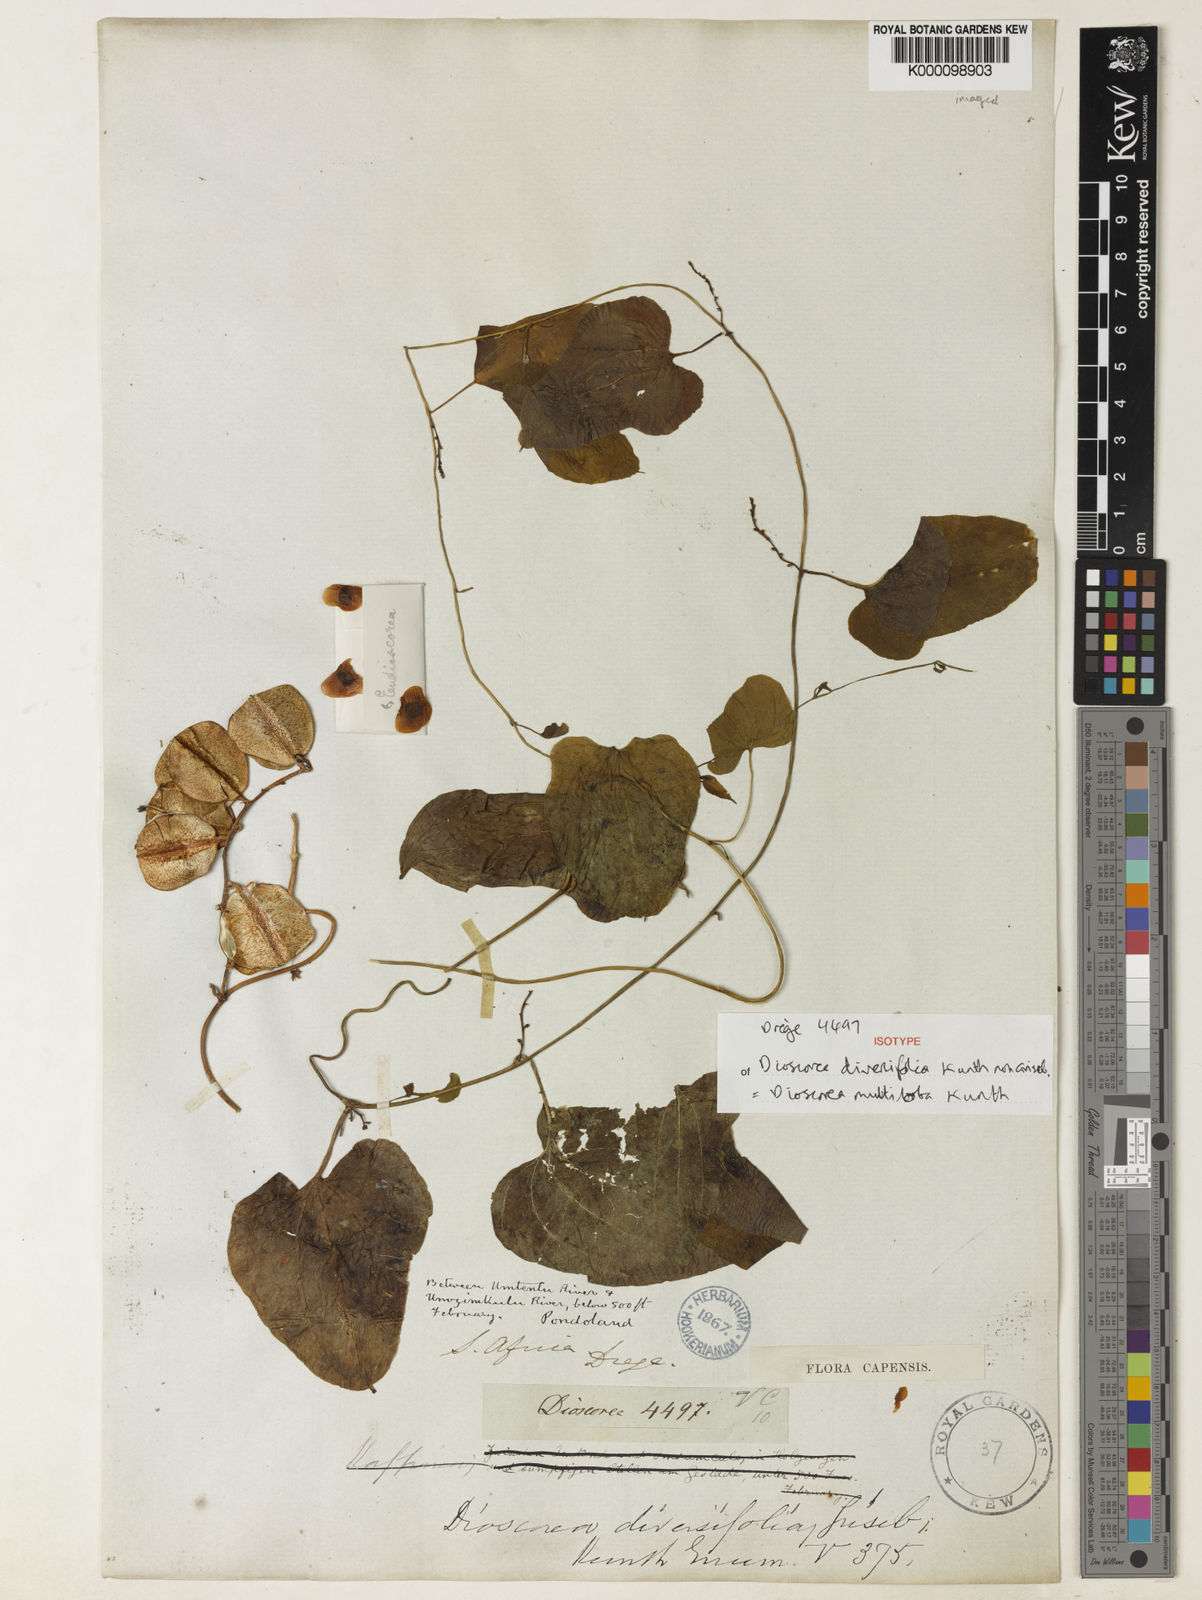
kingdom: Plantae
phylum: Tracheophyta
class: Liliopsida
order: Dioscoreales
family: Dioscoreaceae
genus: Dioscorea
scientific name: Dioscorea multiloba
